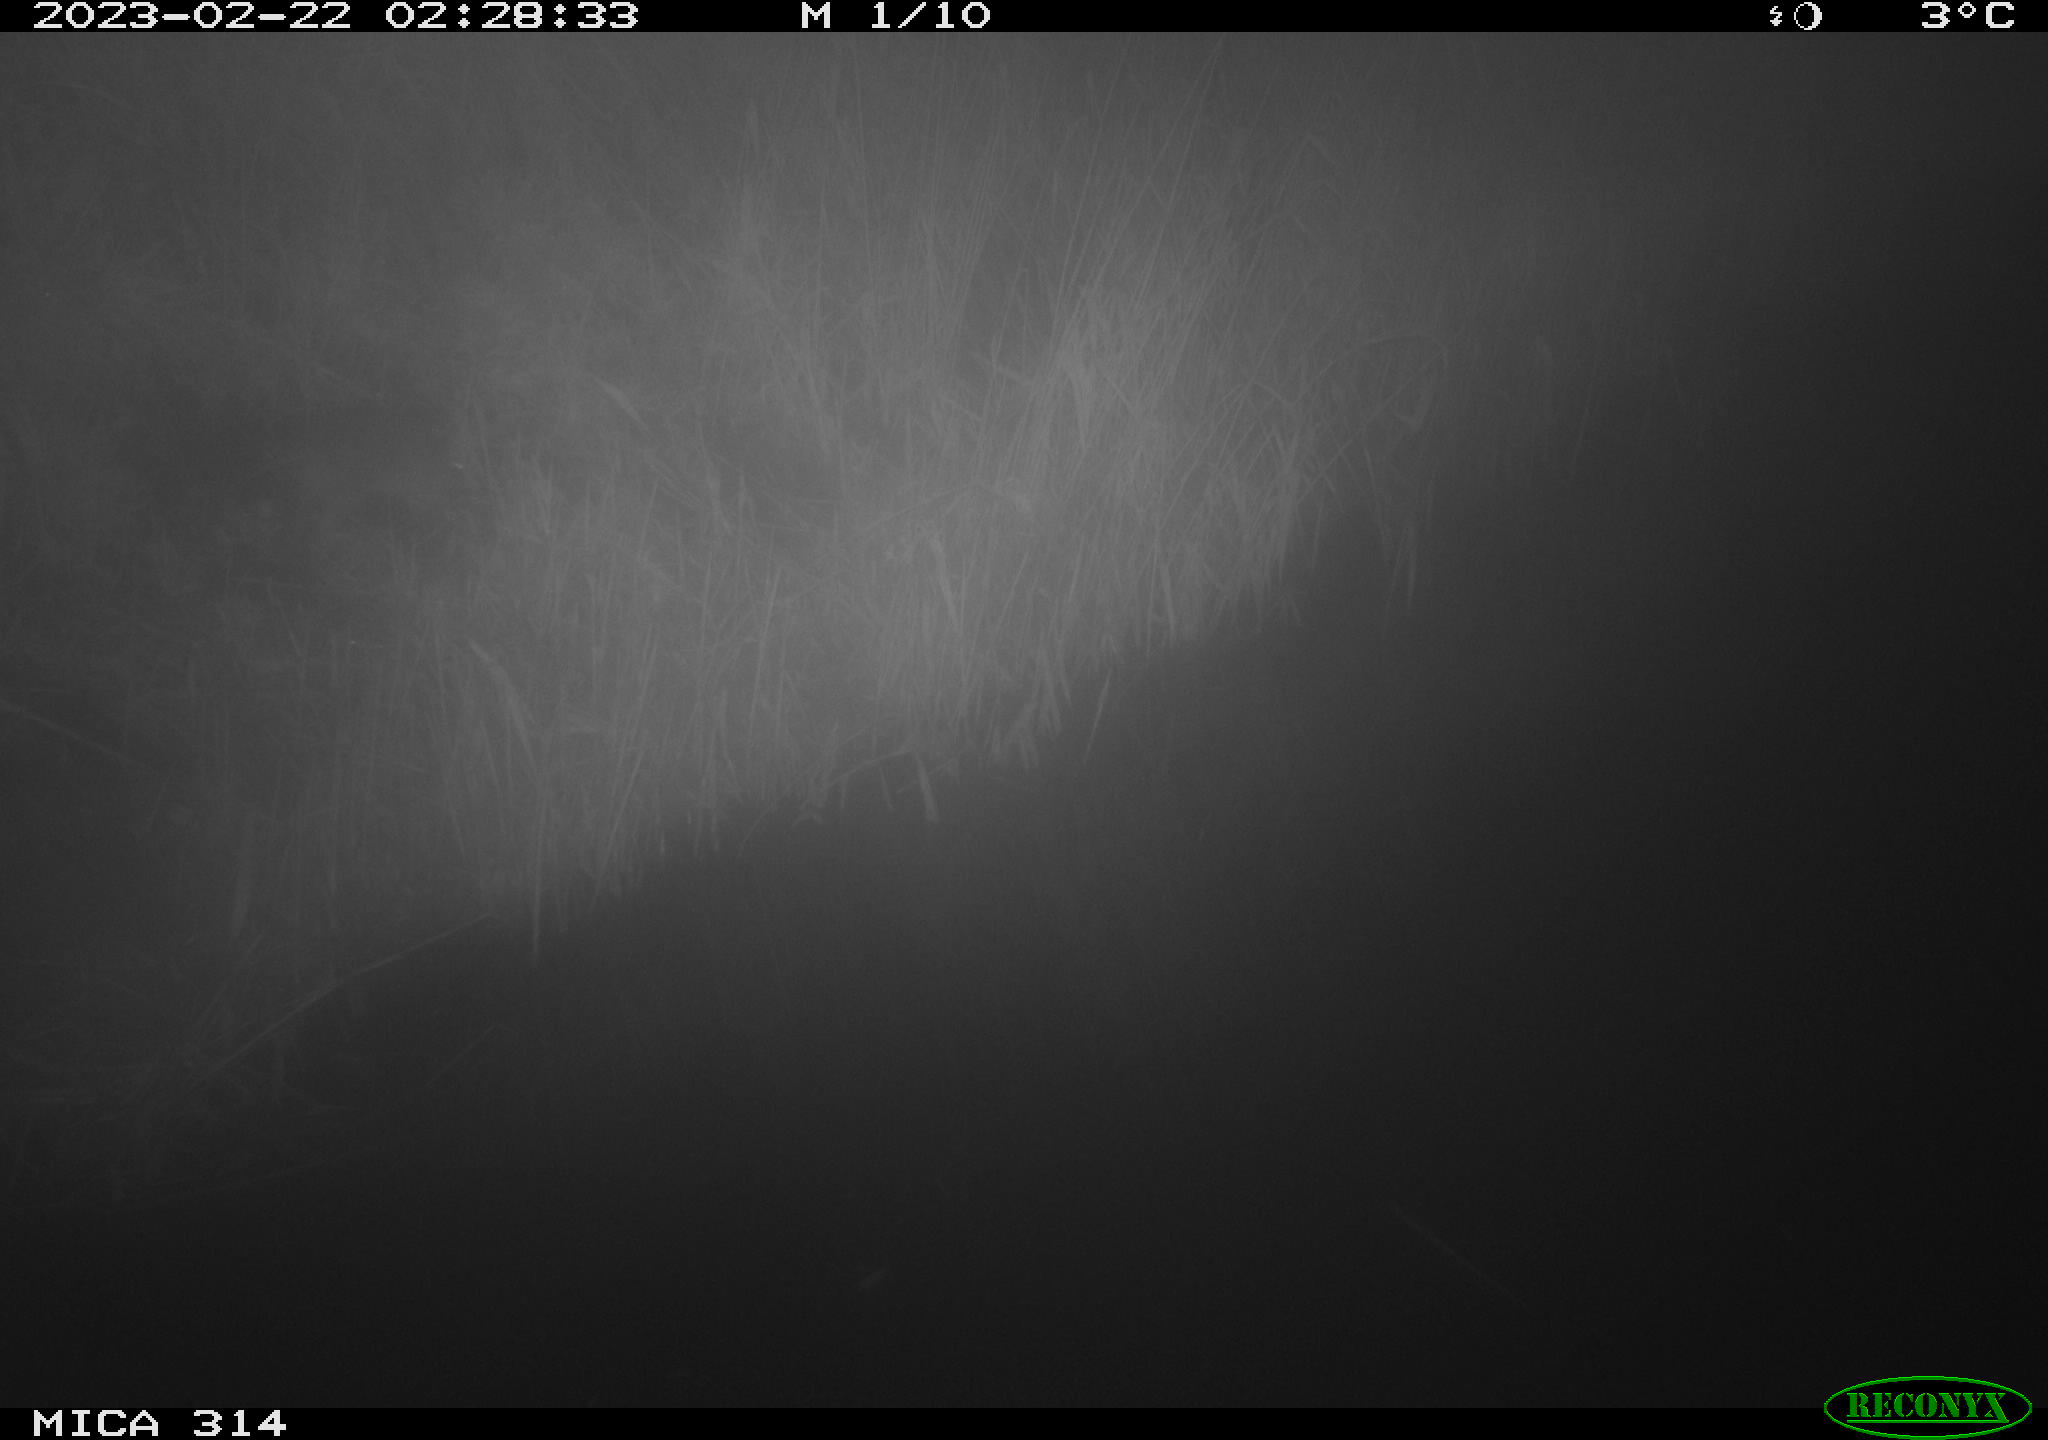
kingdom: Animalia
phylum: Chordata
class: Mammalia
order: Rodentia
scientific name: Rodentia
